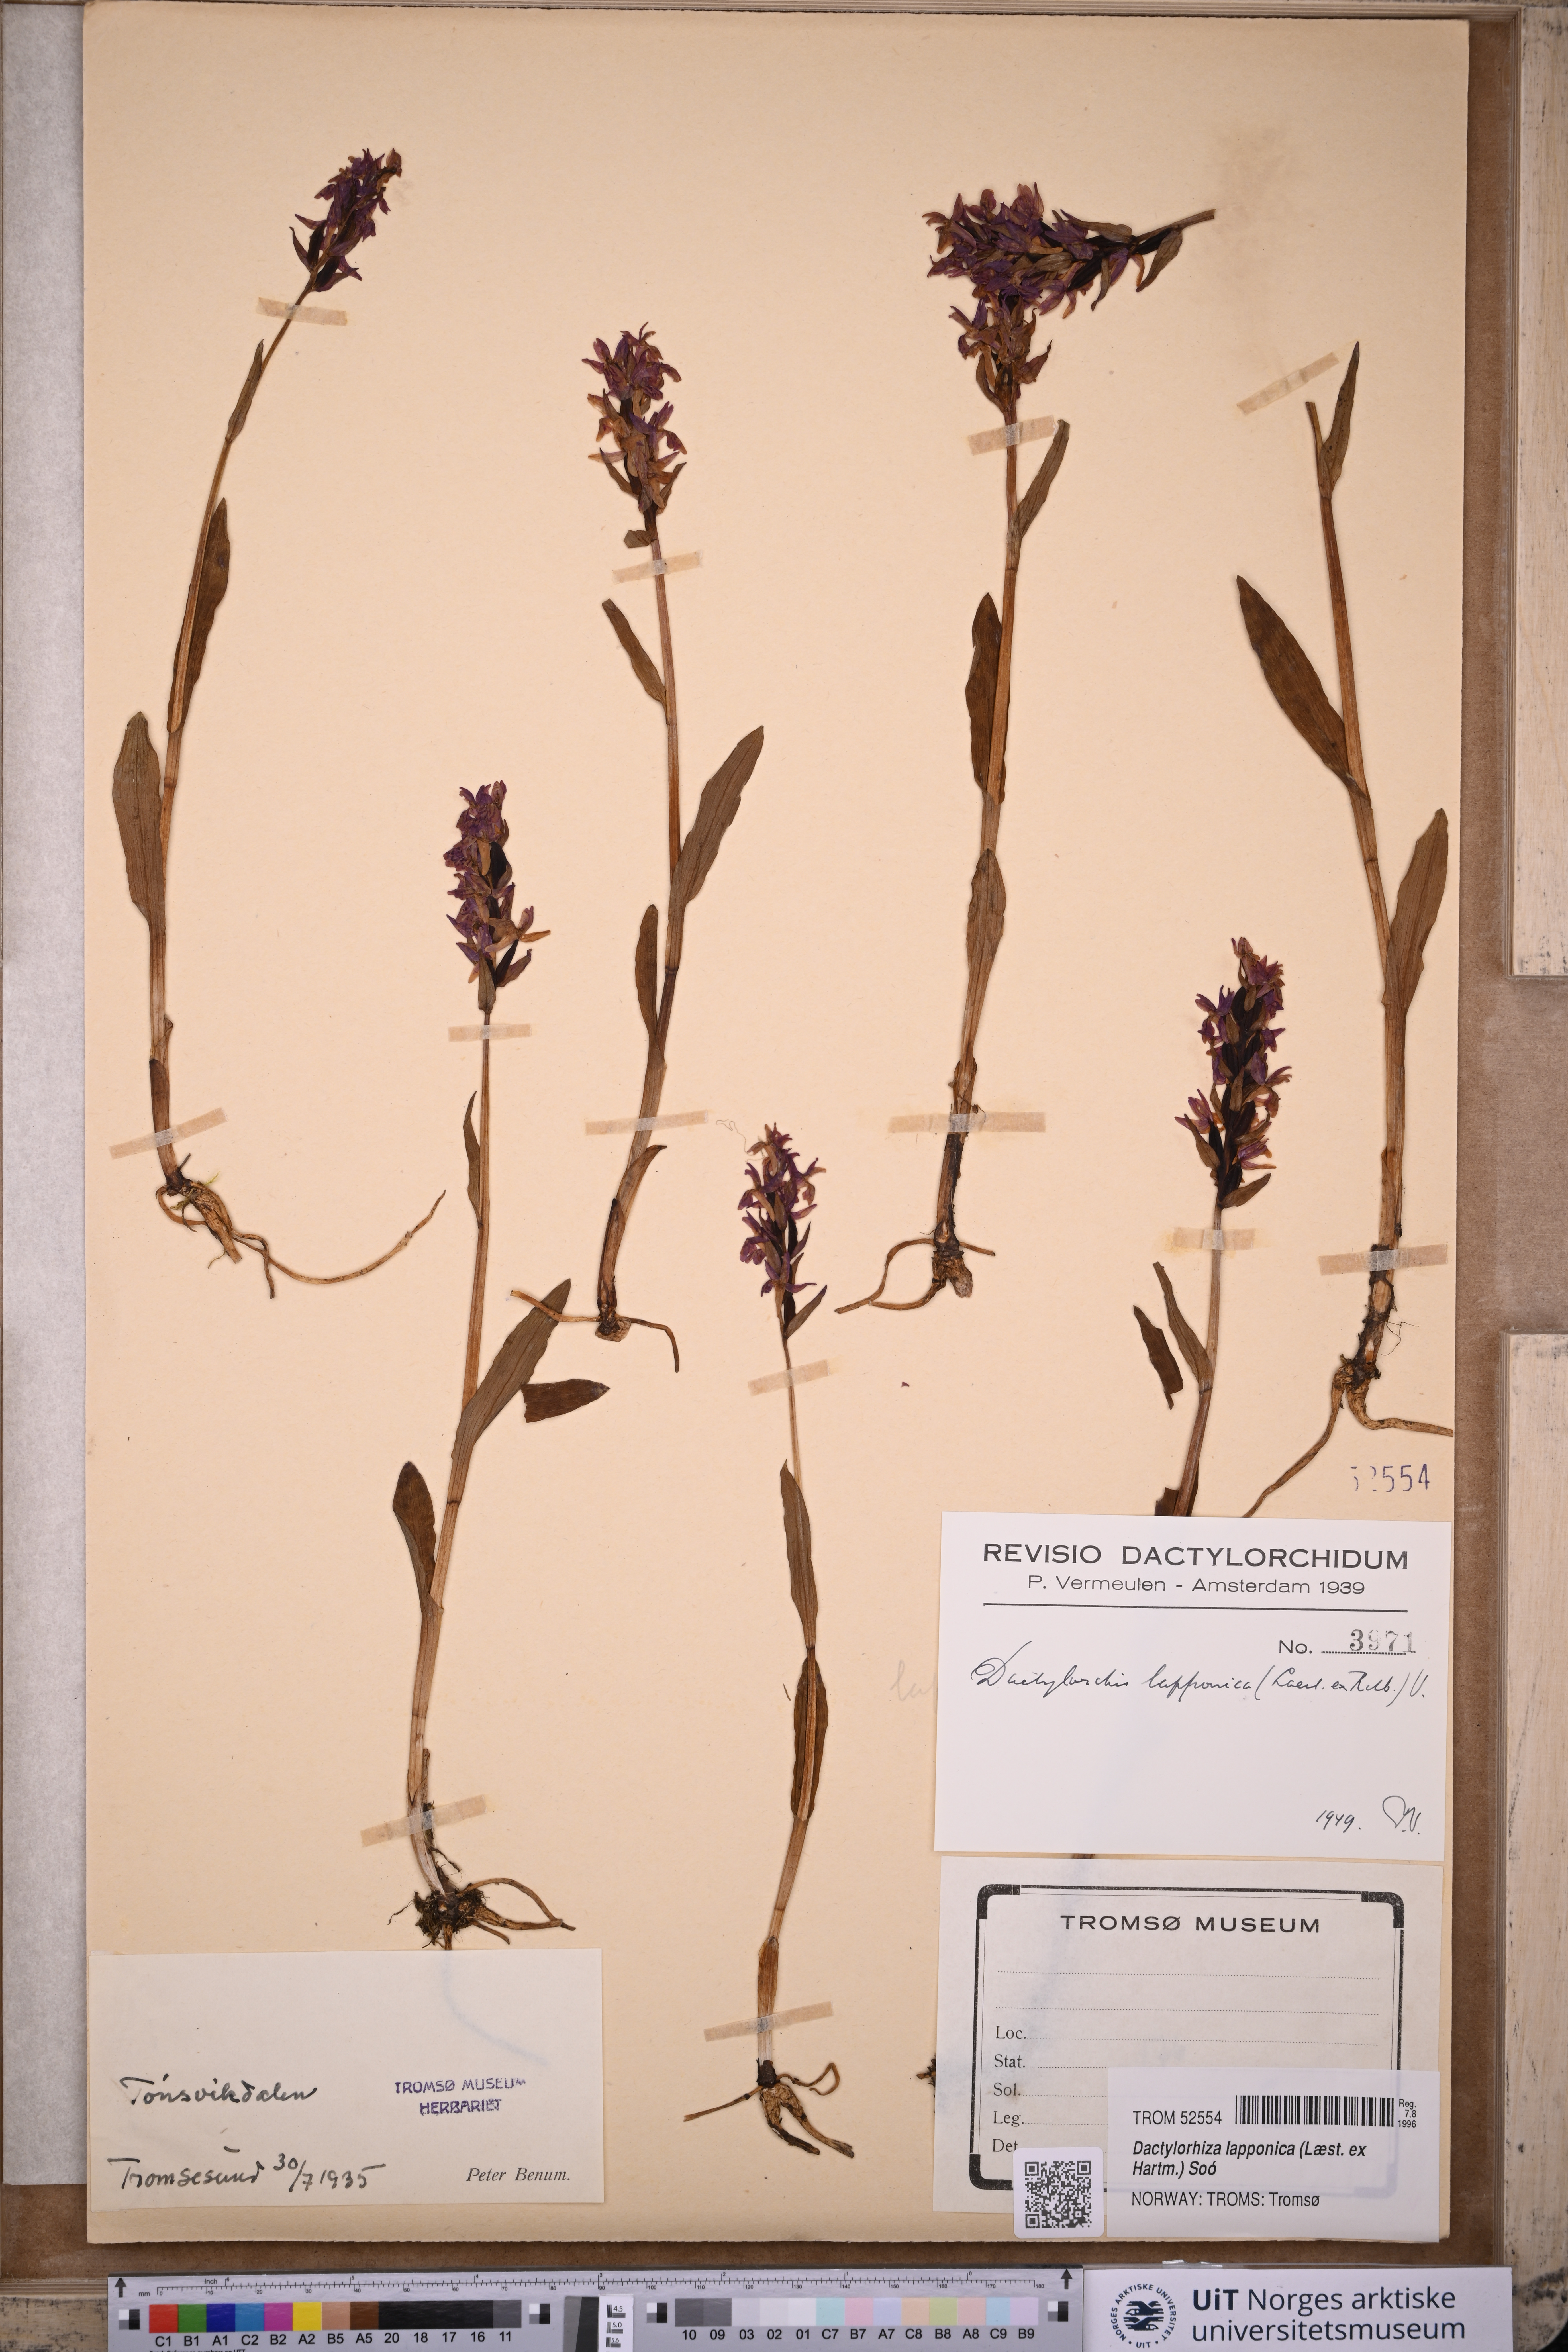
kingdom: Plantae
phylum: Tracheophyta
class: Liliopsida
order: Asparagales
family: Orchidaceae
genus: Dactylorhiza
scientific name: Dactylorhiza majalis
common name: Marsh orchid
